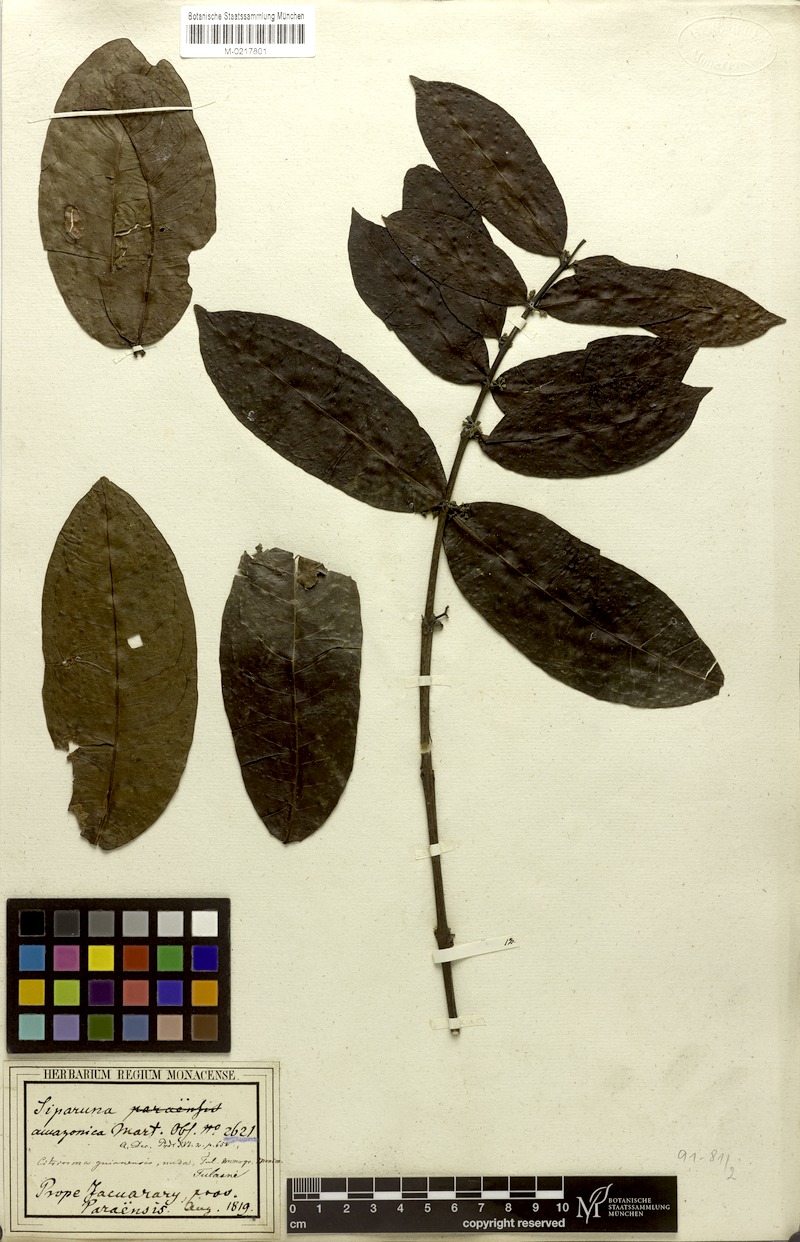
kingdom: Plantae
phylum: Tracheophyta
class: Magnoliopsida
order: Laurales
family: Siparunaceae
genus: Siparuna
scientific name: Siparuna poeppigii
